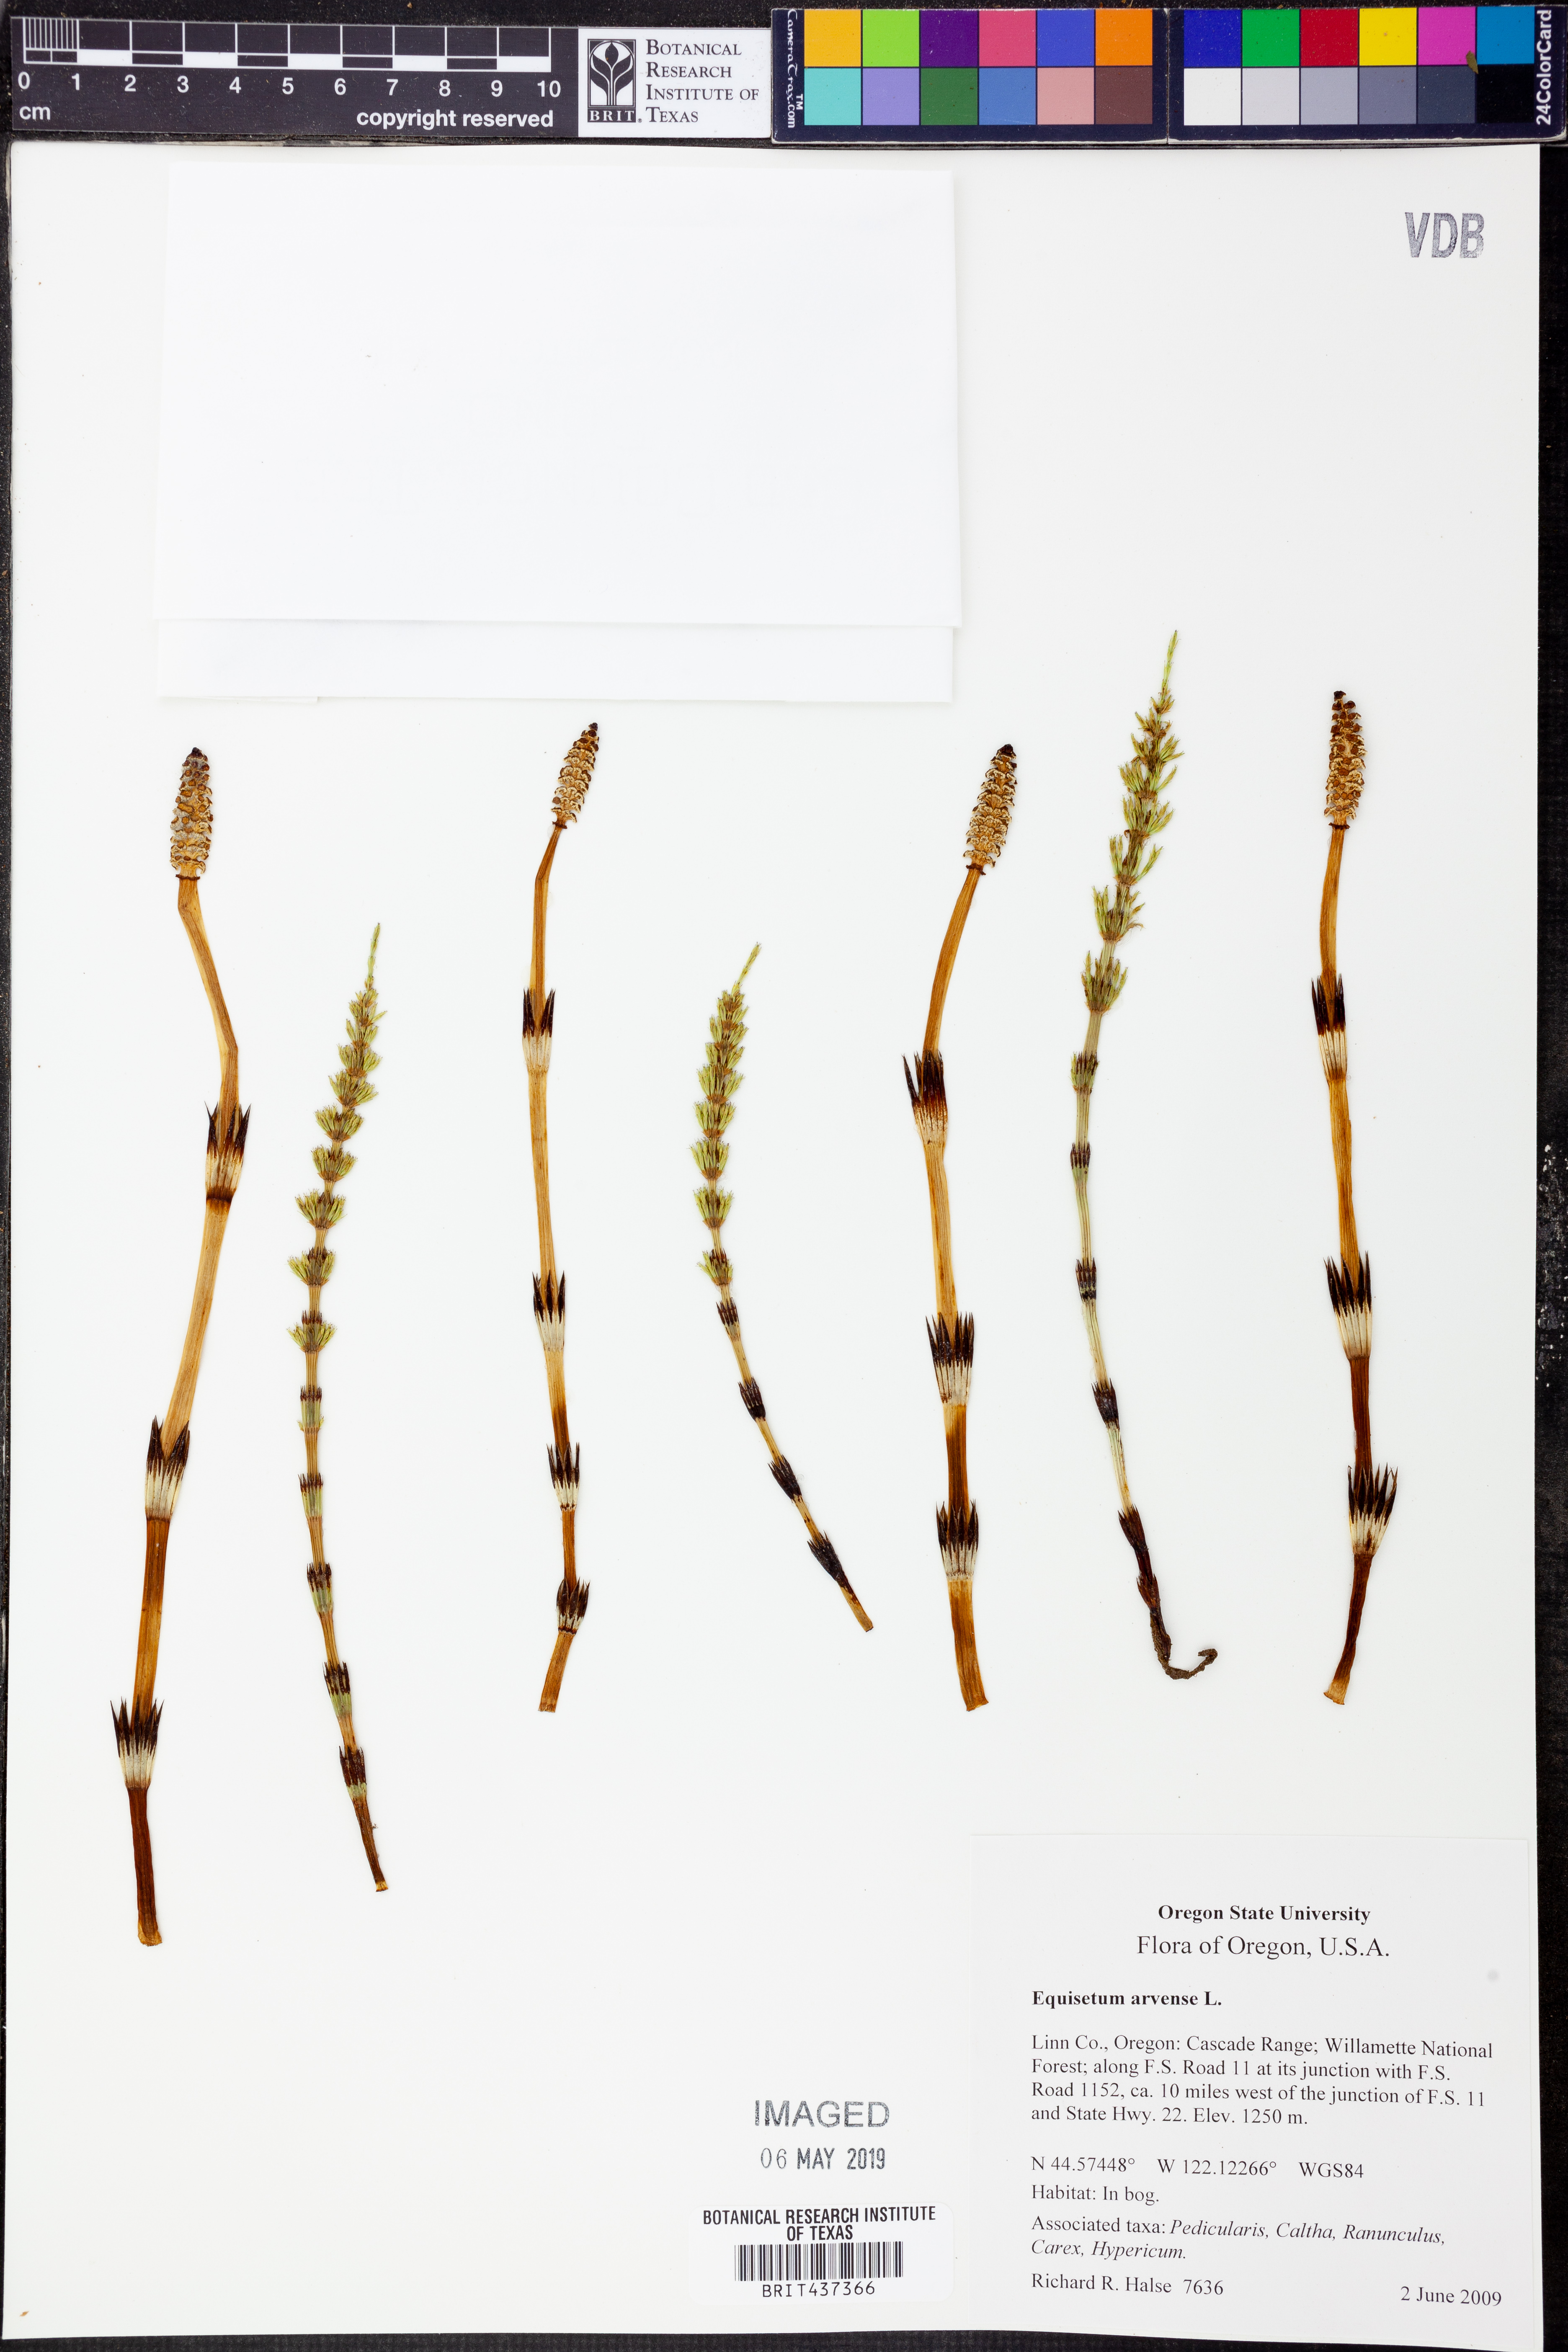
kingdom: Plantae
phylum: Tracheophyta
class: Polypodiopsida
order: Equisetales
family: Equisetaceae
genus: Equisetum
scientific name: Equisetum arvense
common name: Field horsetail
